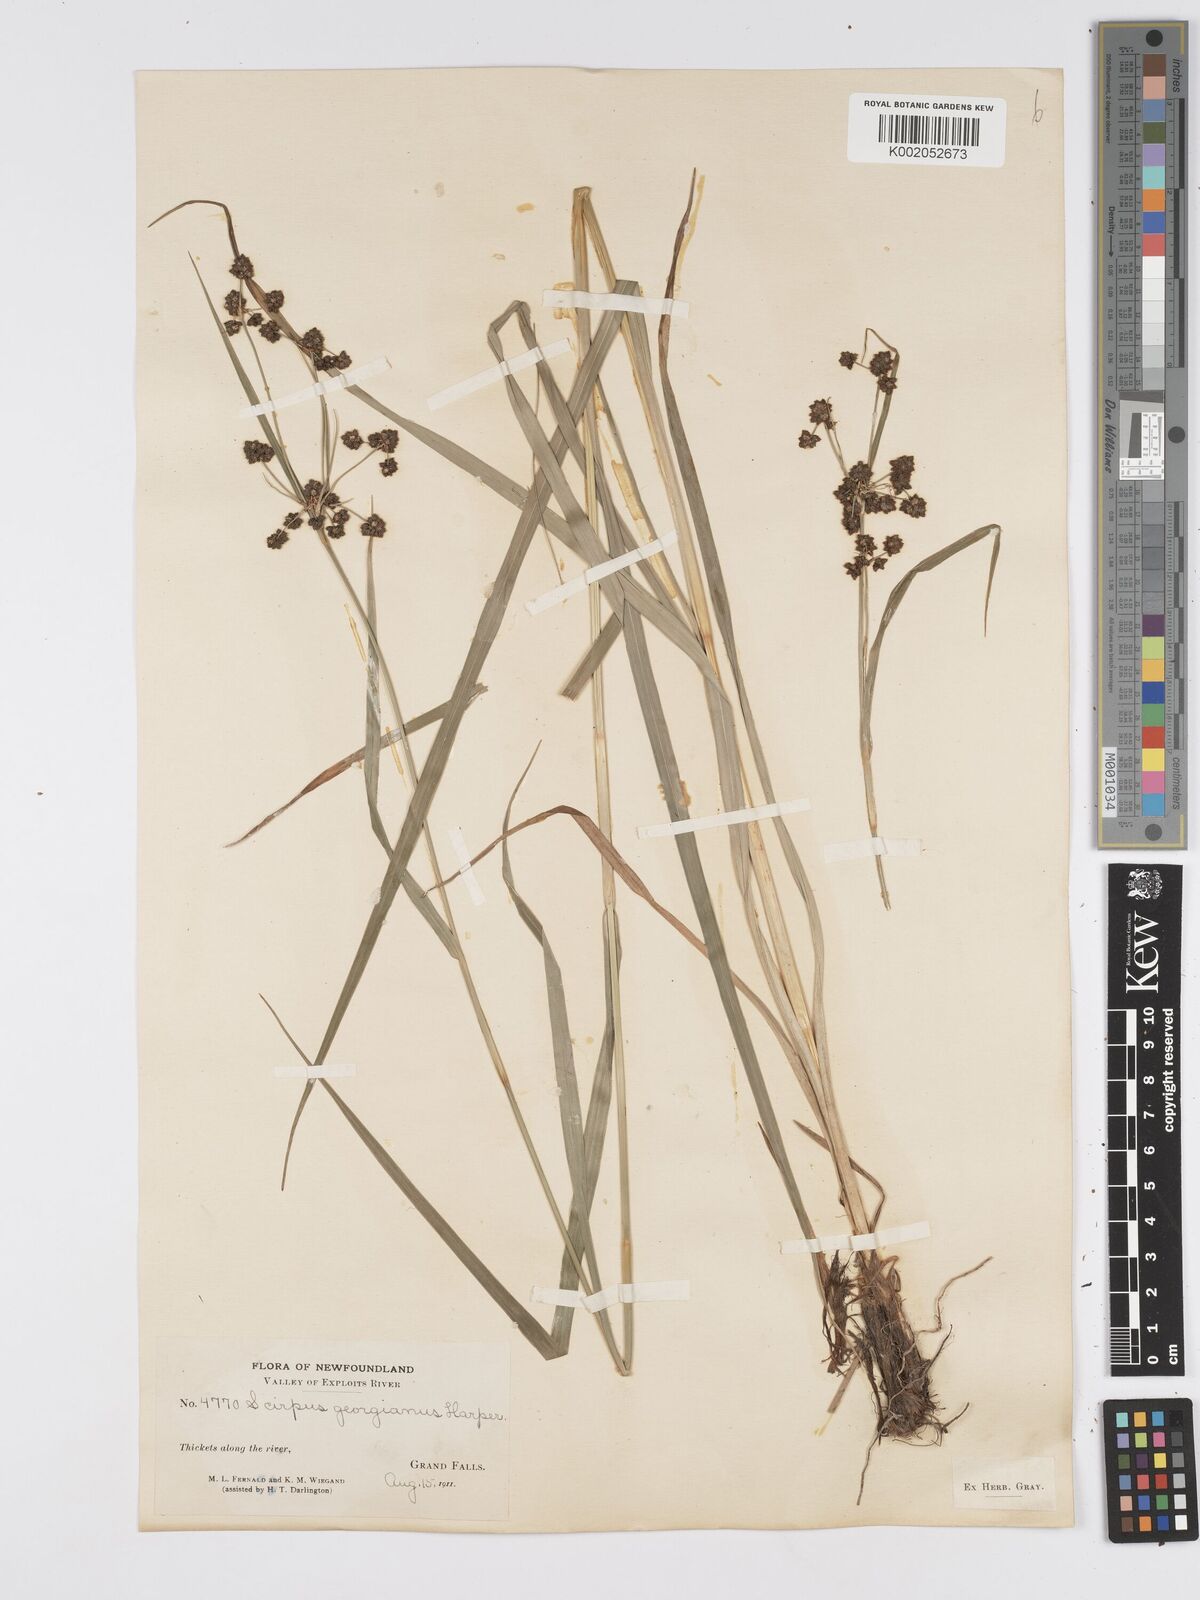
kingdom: Plantae
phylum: Tracheophyta
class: Liliopsida
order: Poales
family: Cyperaceae
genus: Scirpus
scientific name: Scirpus atrovirens
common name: Black bulrush
